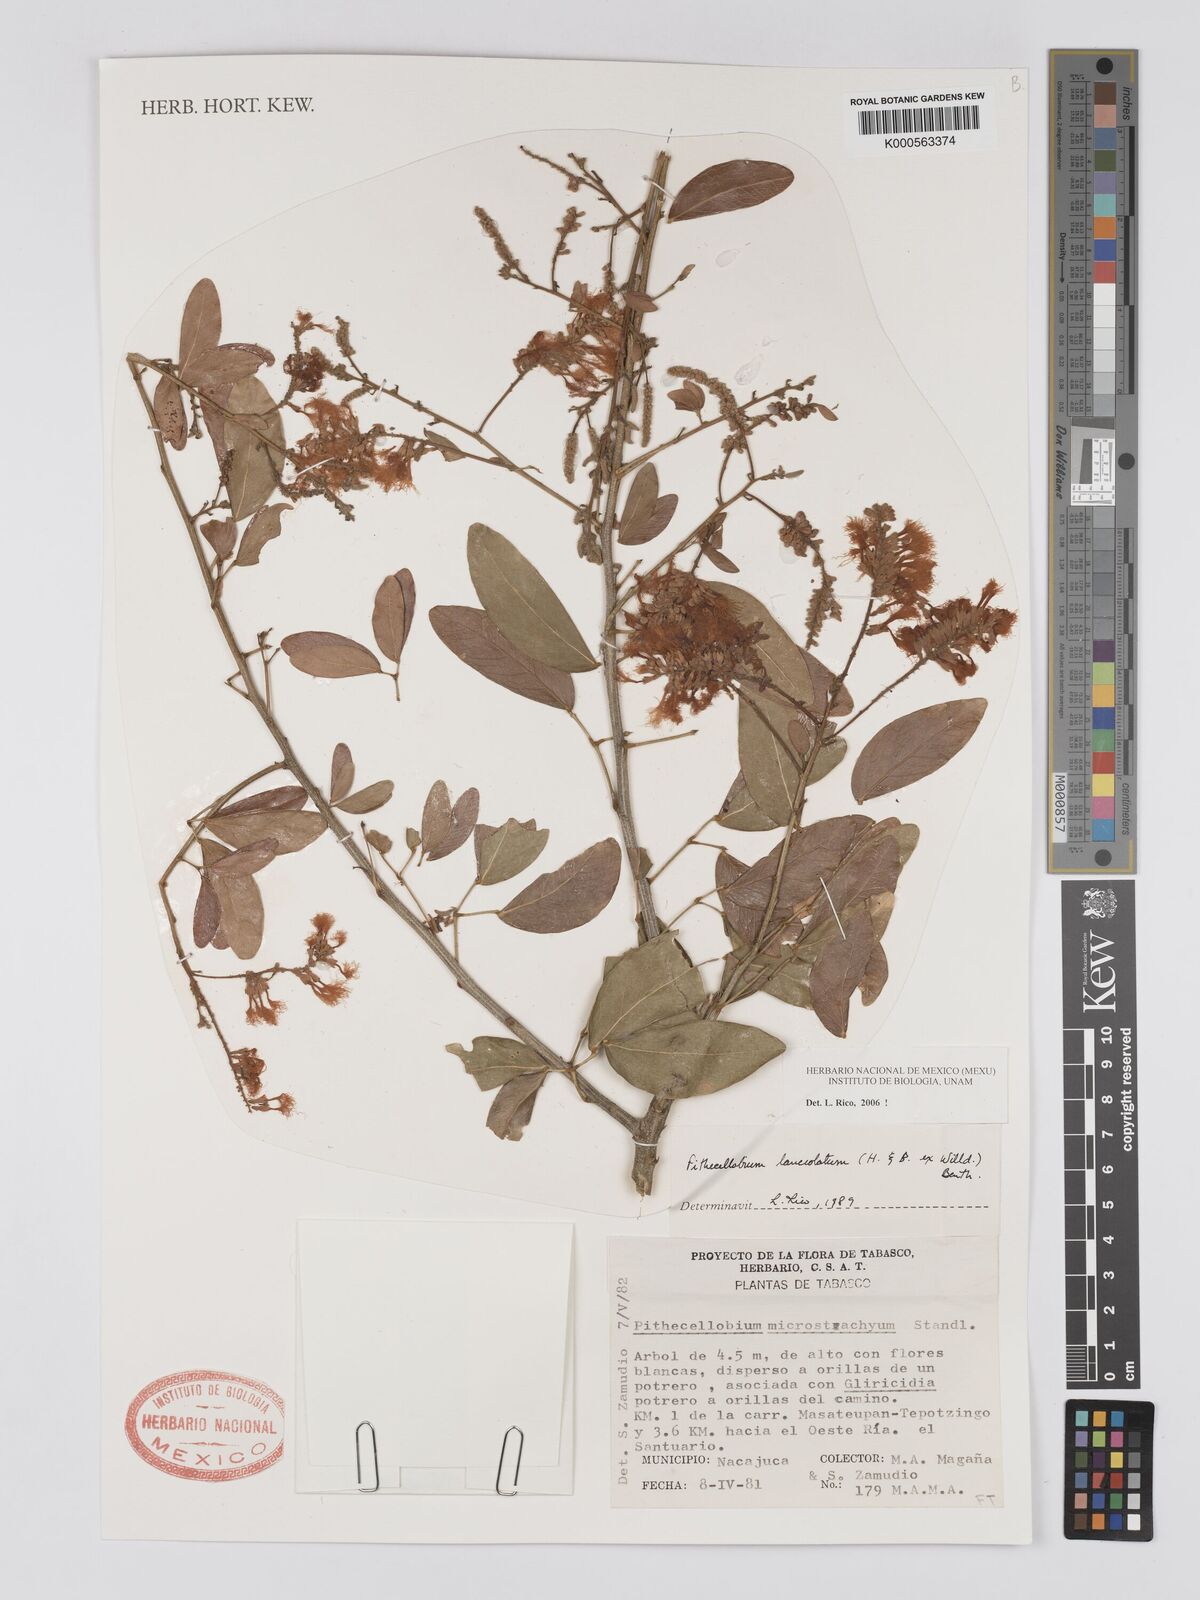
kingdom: Plantae
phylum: Tracheophyta
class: Magnoliopsida
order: Fabales
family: Fabaceae
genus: Pithecellobium
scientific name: Pithecellobium lanceolatum
